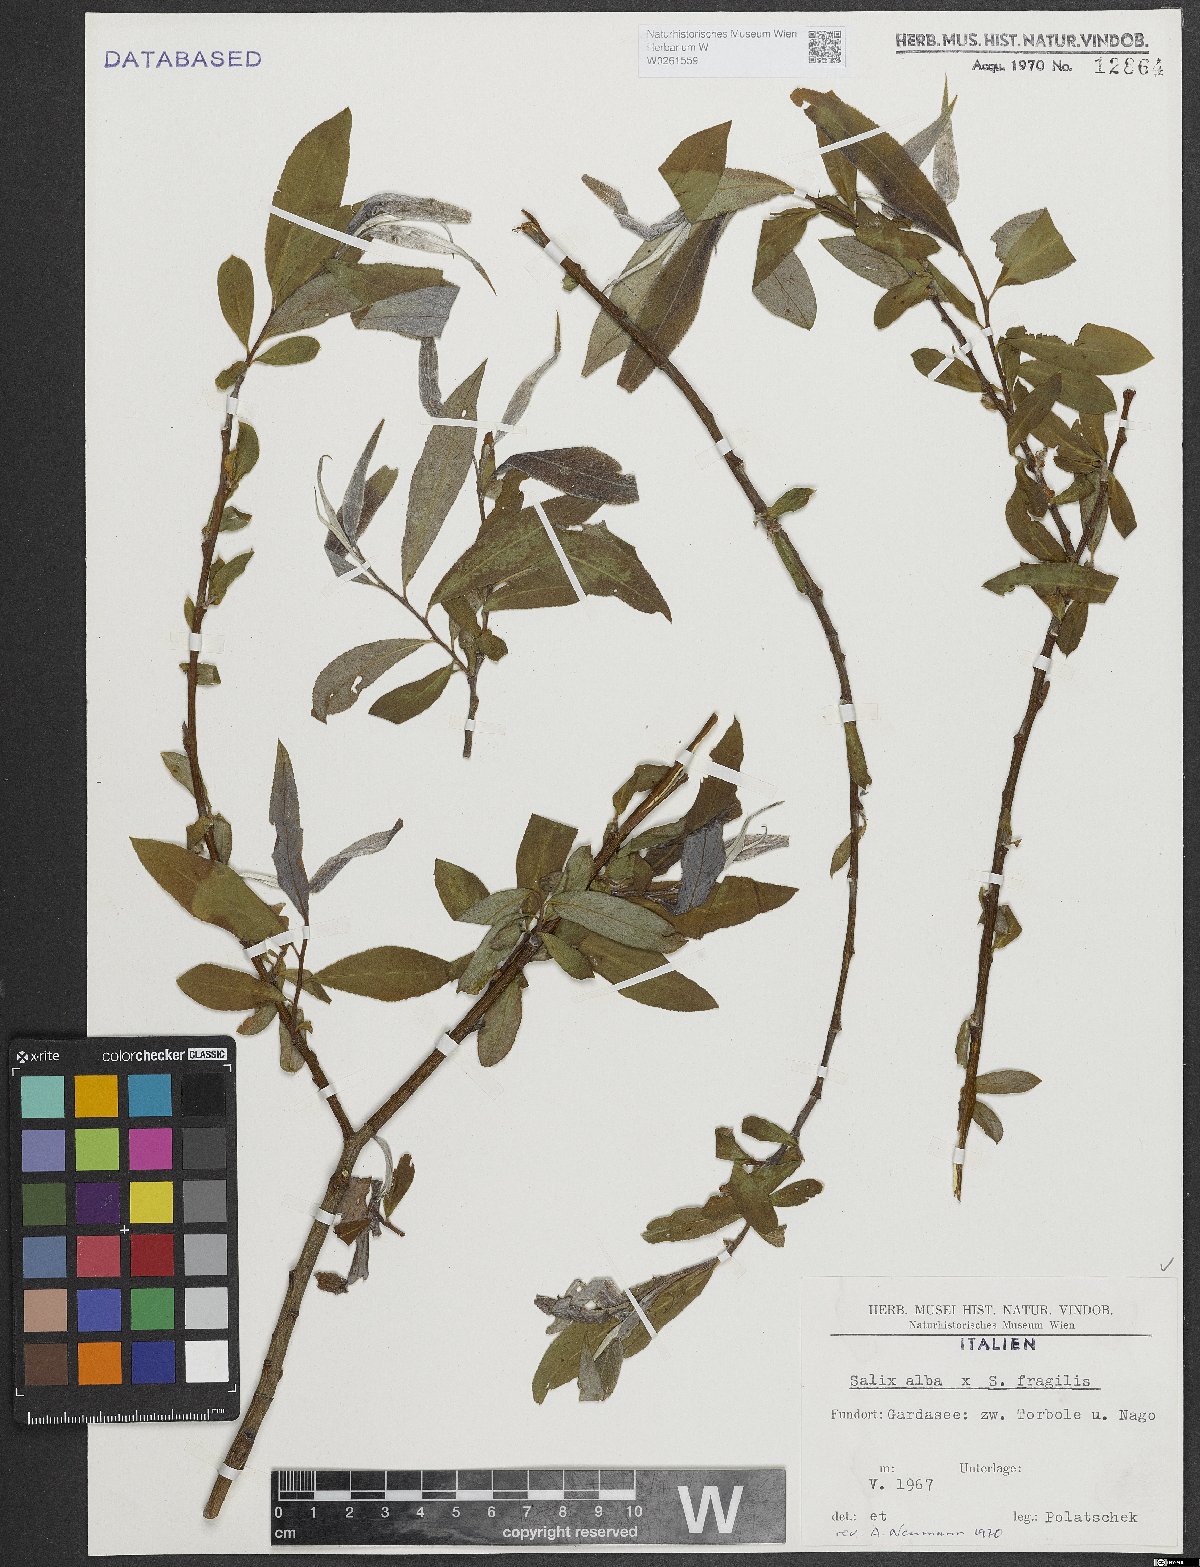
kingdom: Plantae
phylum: Tracheophyta
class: Magnoliopsida
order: Malpighiales
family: Salicaceae
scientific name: Salicaceae
